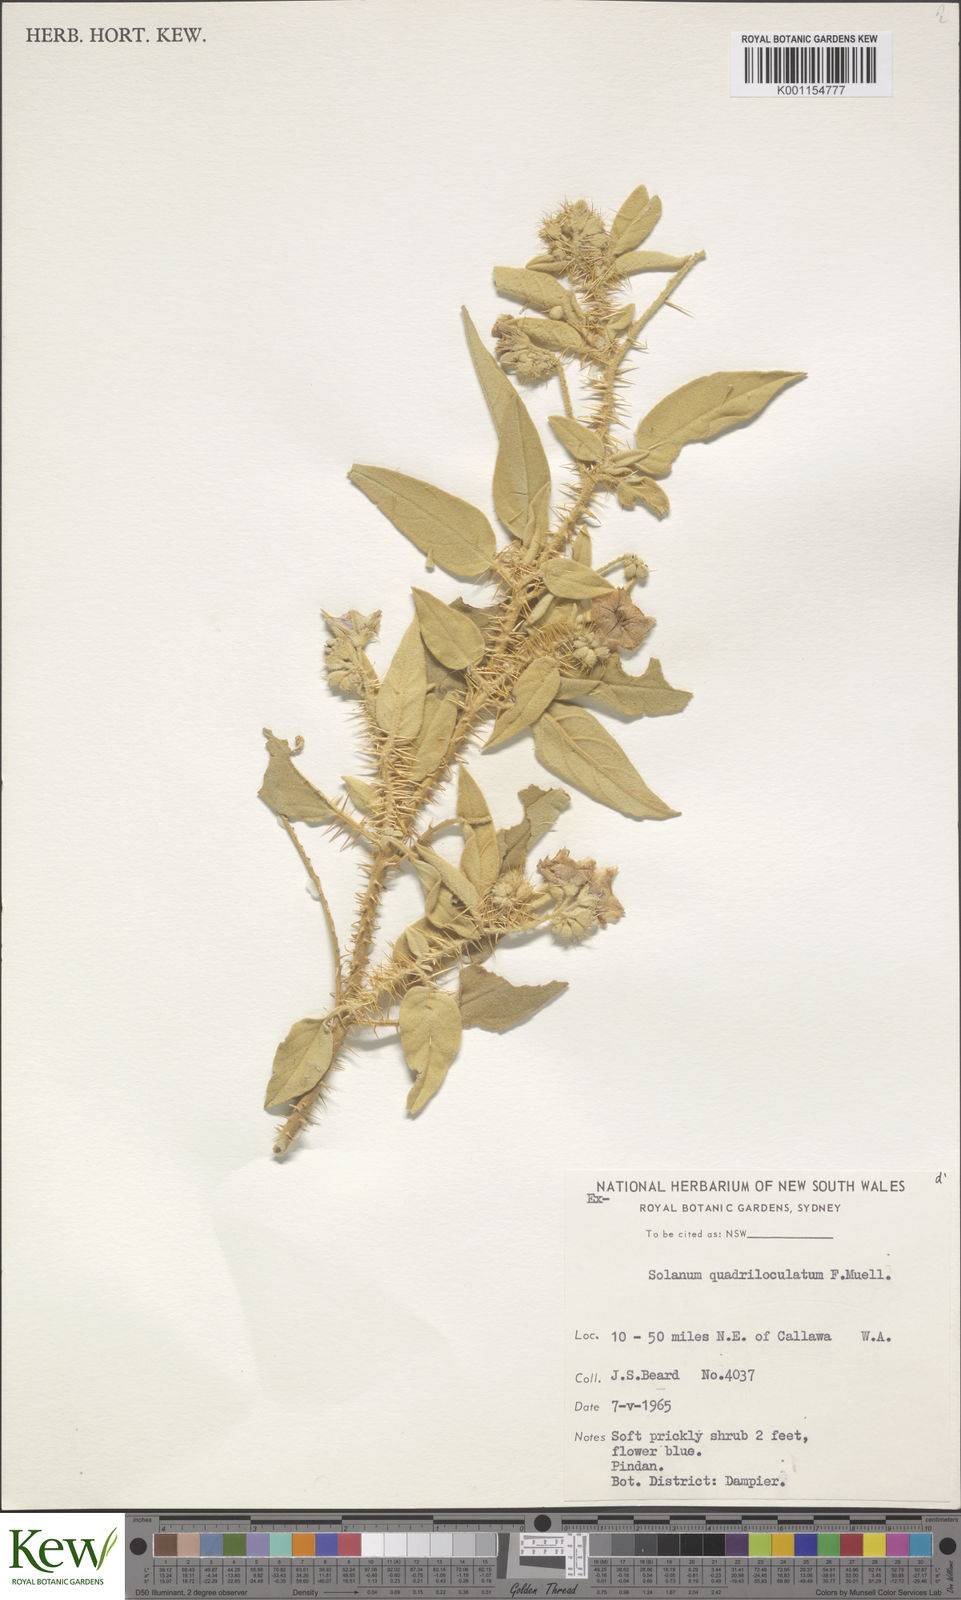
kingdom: Plantae
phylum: Tracheophyta
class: Magnoliopsida
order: Solanales
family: Solanaceae
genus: Solanum
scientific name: Solanum quadriloculatum
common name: Wild tomato
